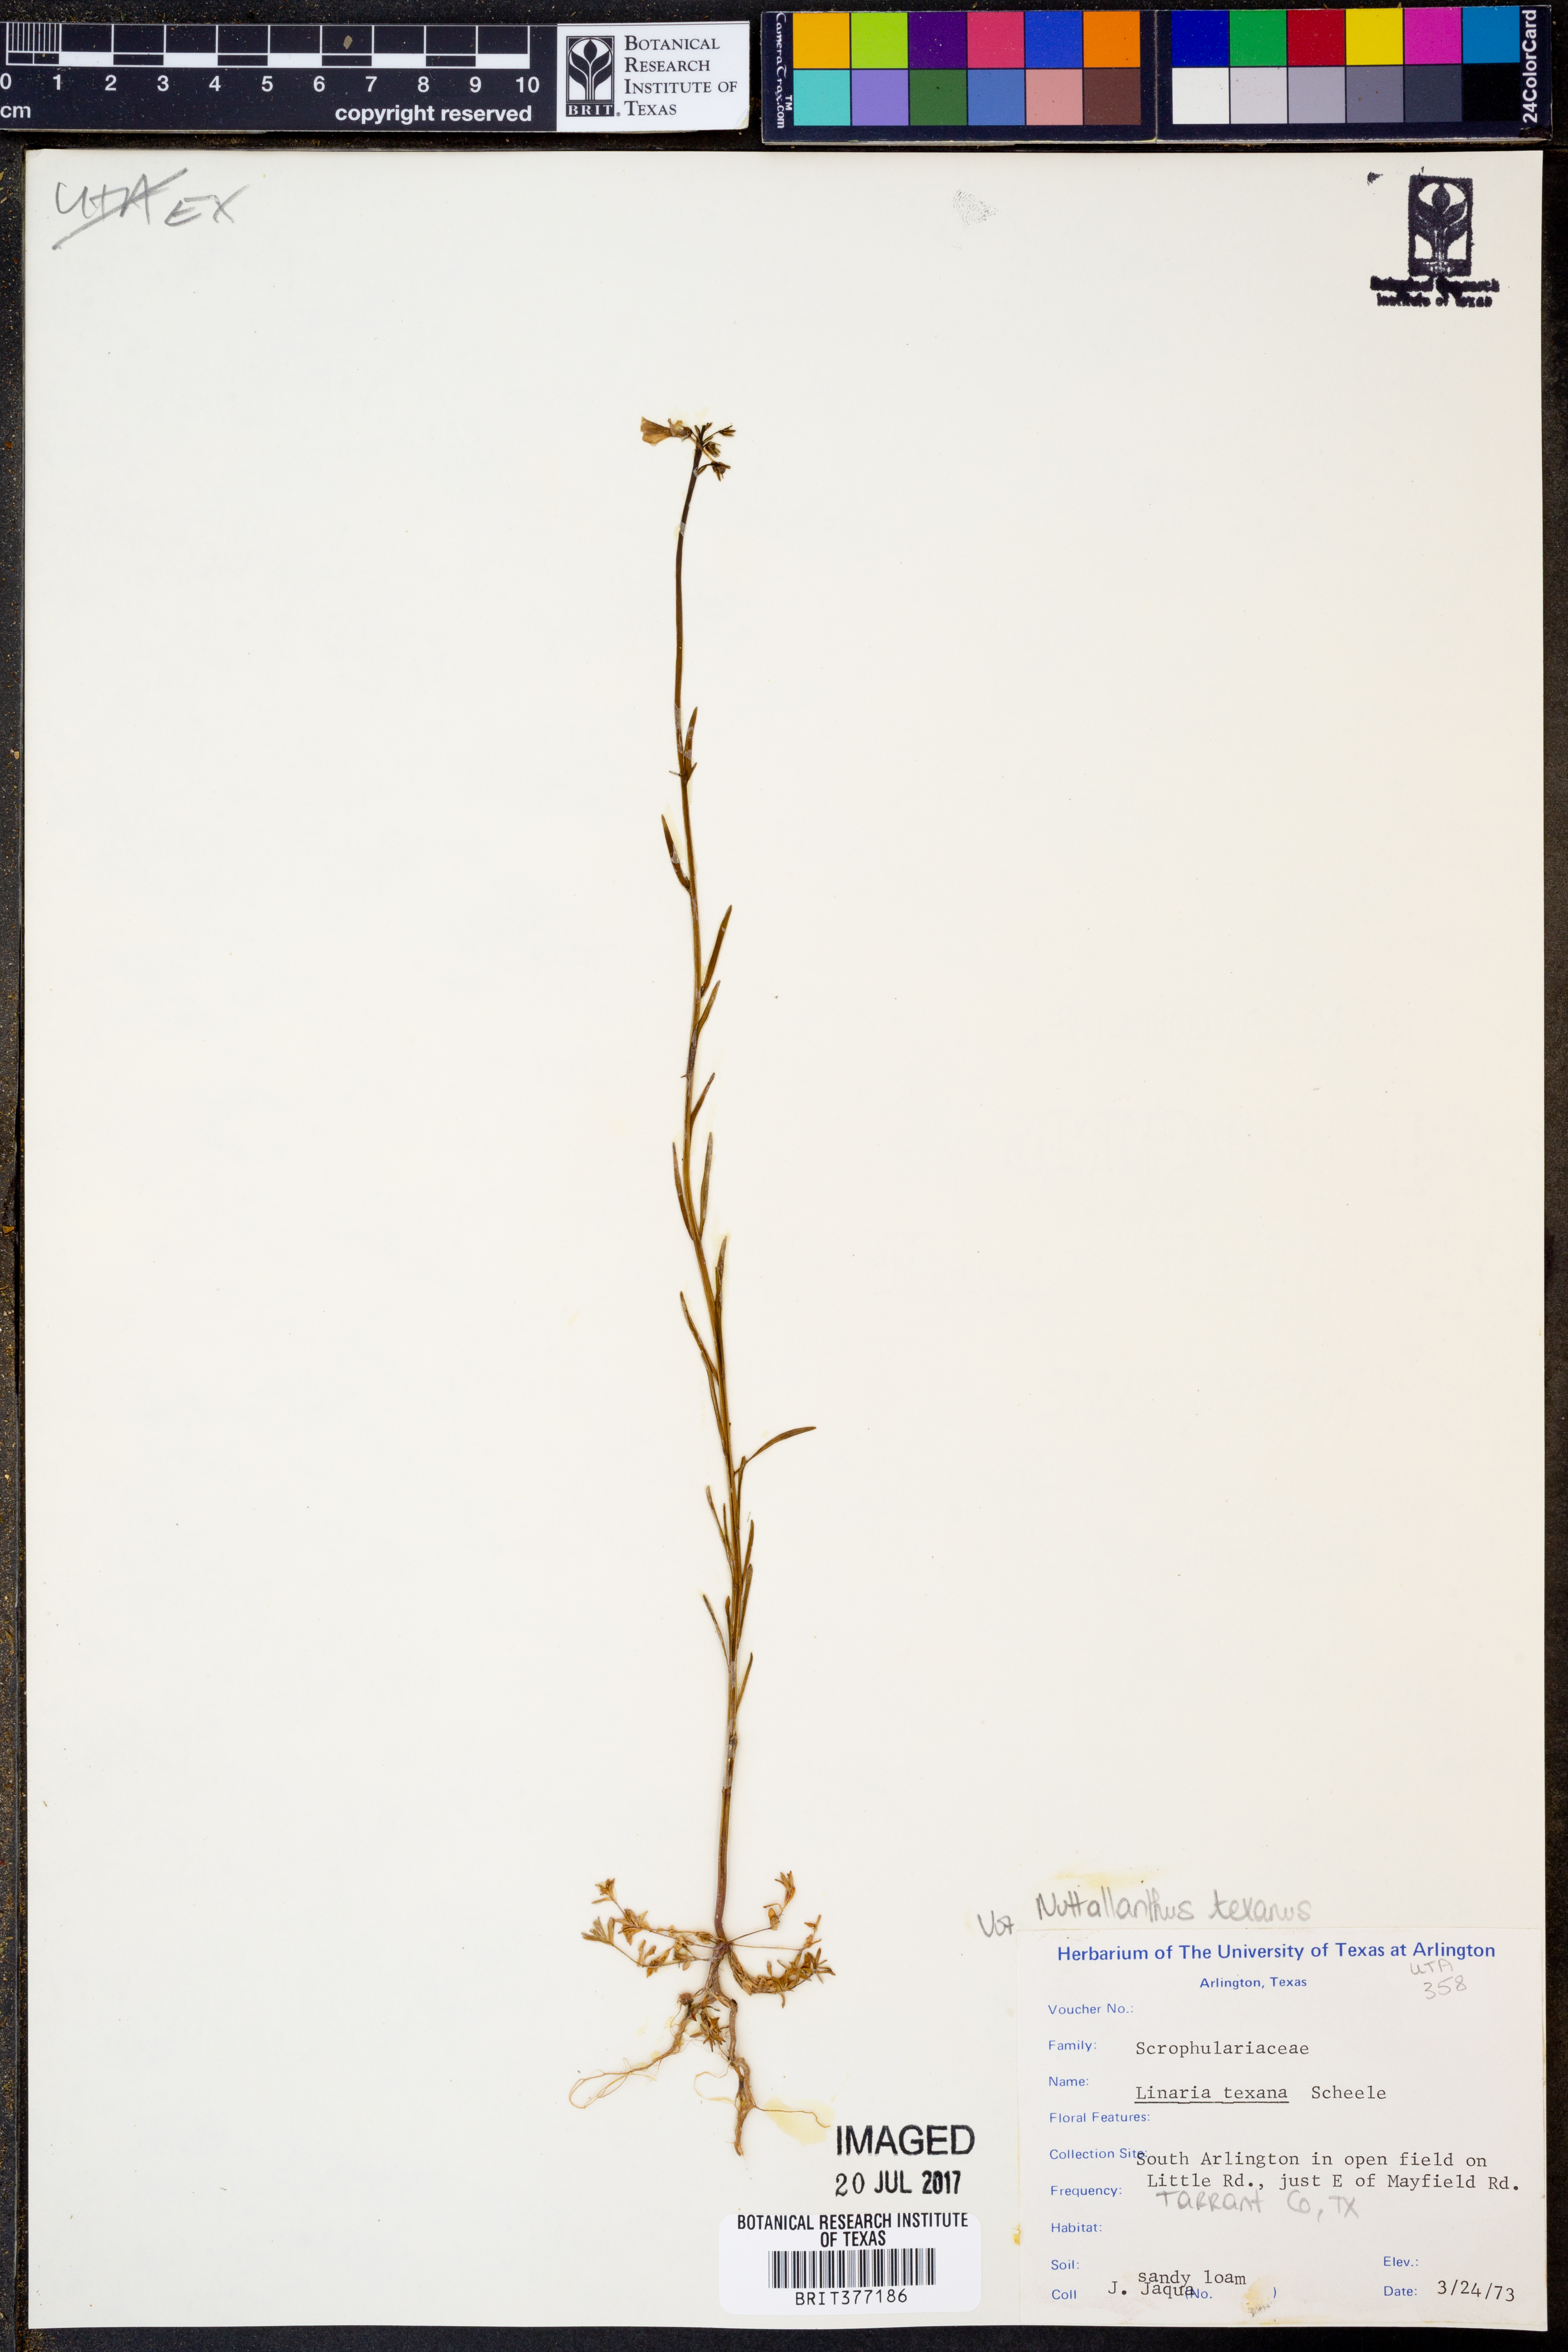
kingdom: Plantae
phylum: Tracheophyta
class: Magnoliopsida
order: Lamiales
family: Plantaginaceae
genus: Nuttallanthus
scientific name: Nuttallanthus texanus
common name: Texas toadflax
